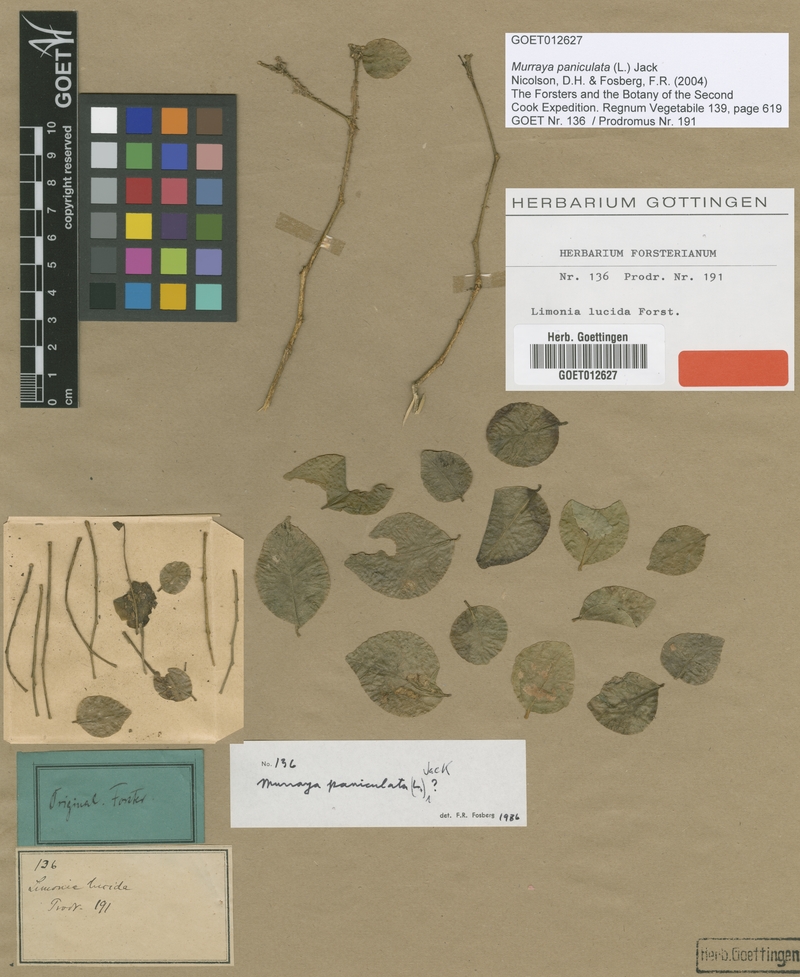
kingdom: Plantae
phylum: Tracheophyta
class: Magnoliopsida
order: Sapindales
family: Rutaceae
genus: Murraya
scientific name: Murraya paniculata
